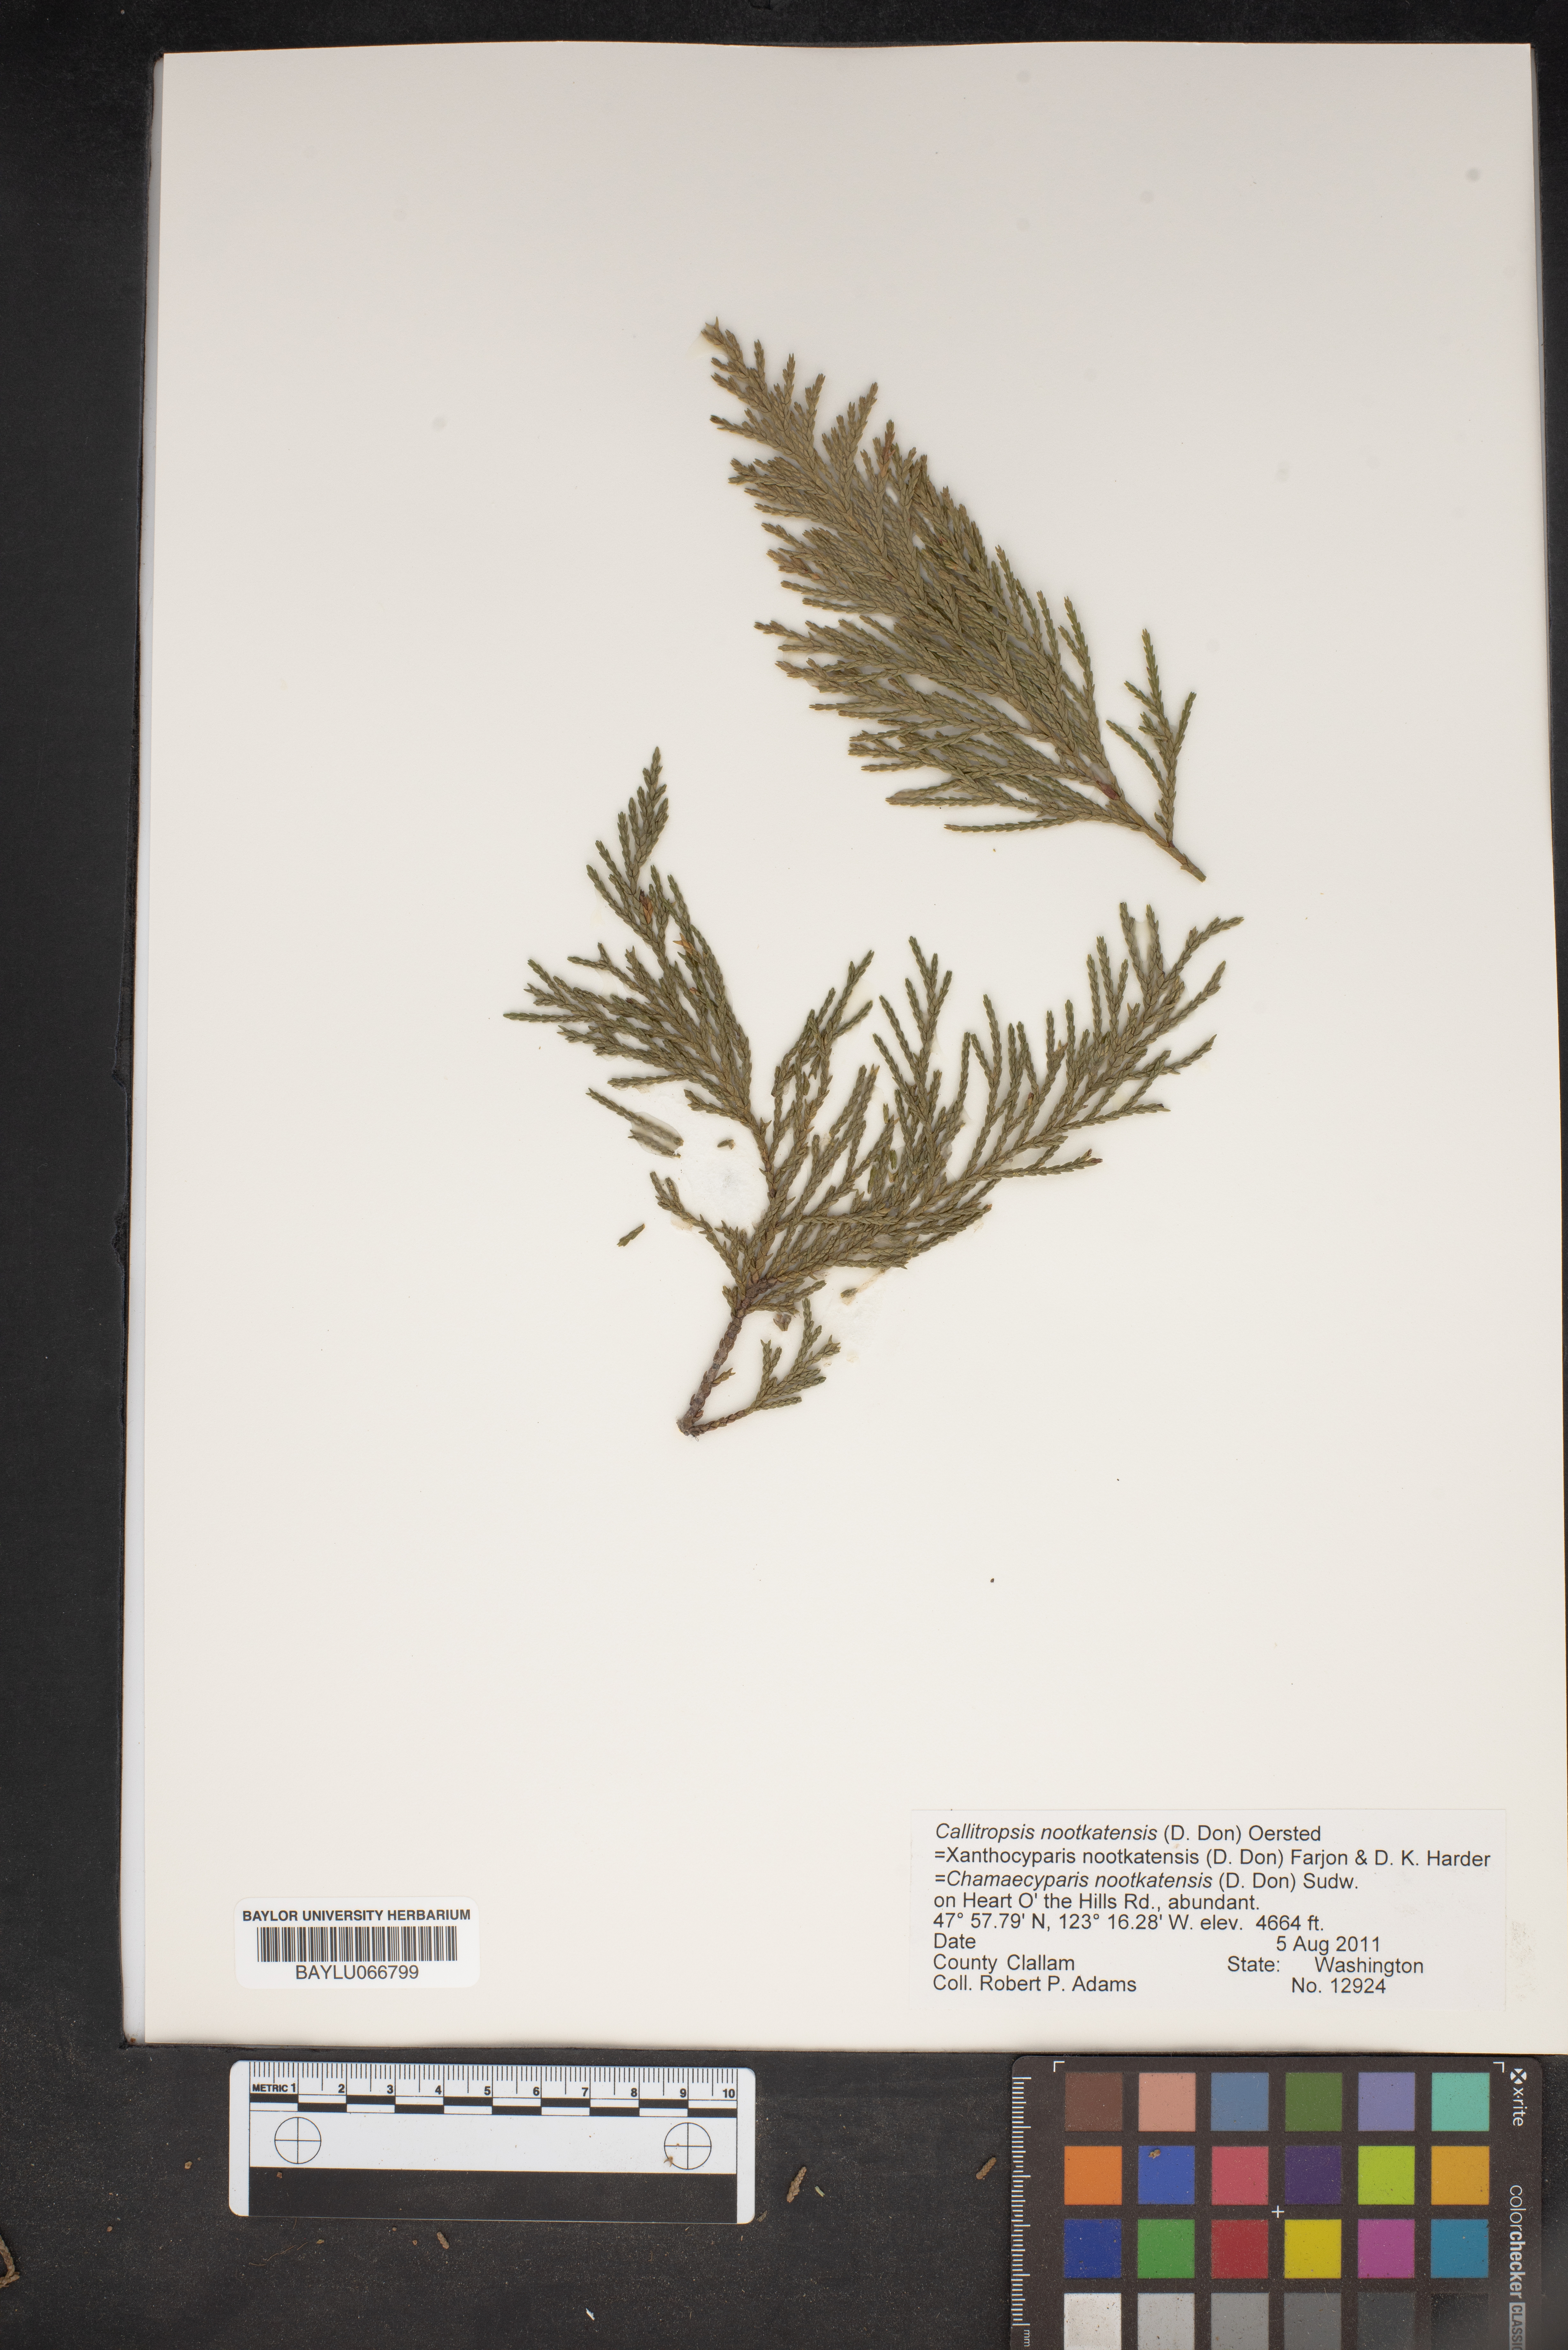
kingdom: Plantae
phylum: Tracheophyta
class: Pinopsida
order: Pinales
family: Cupressaceae
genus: Xanthocyparis
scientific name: Xanthocyparis nootkatensis
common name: Nootka cypress
